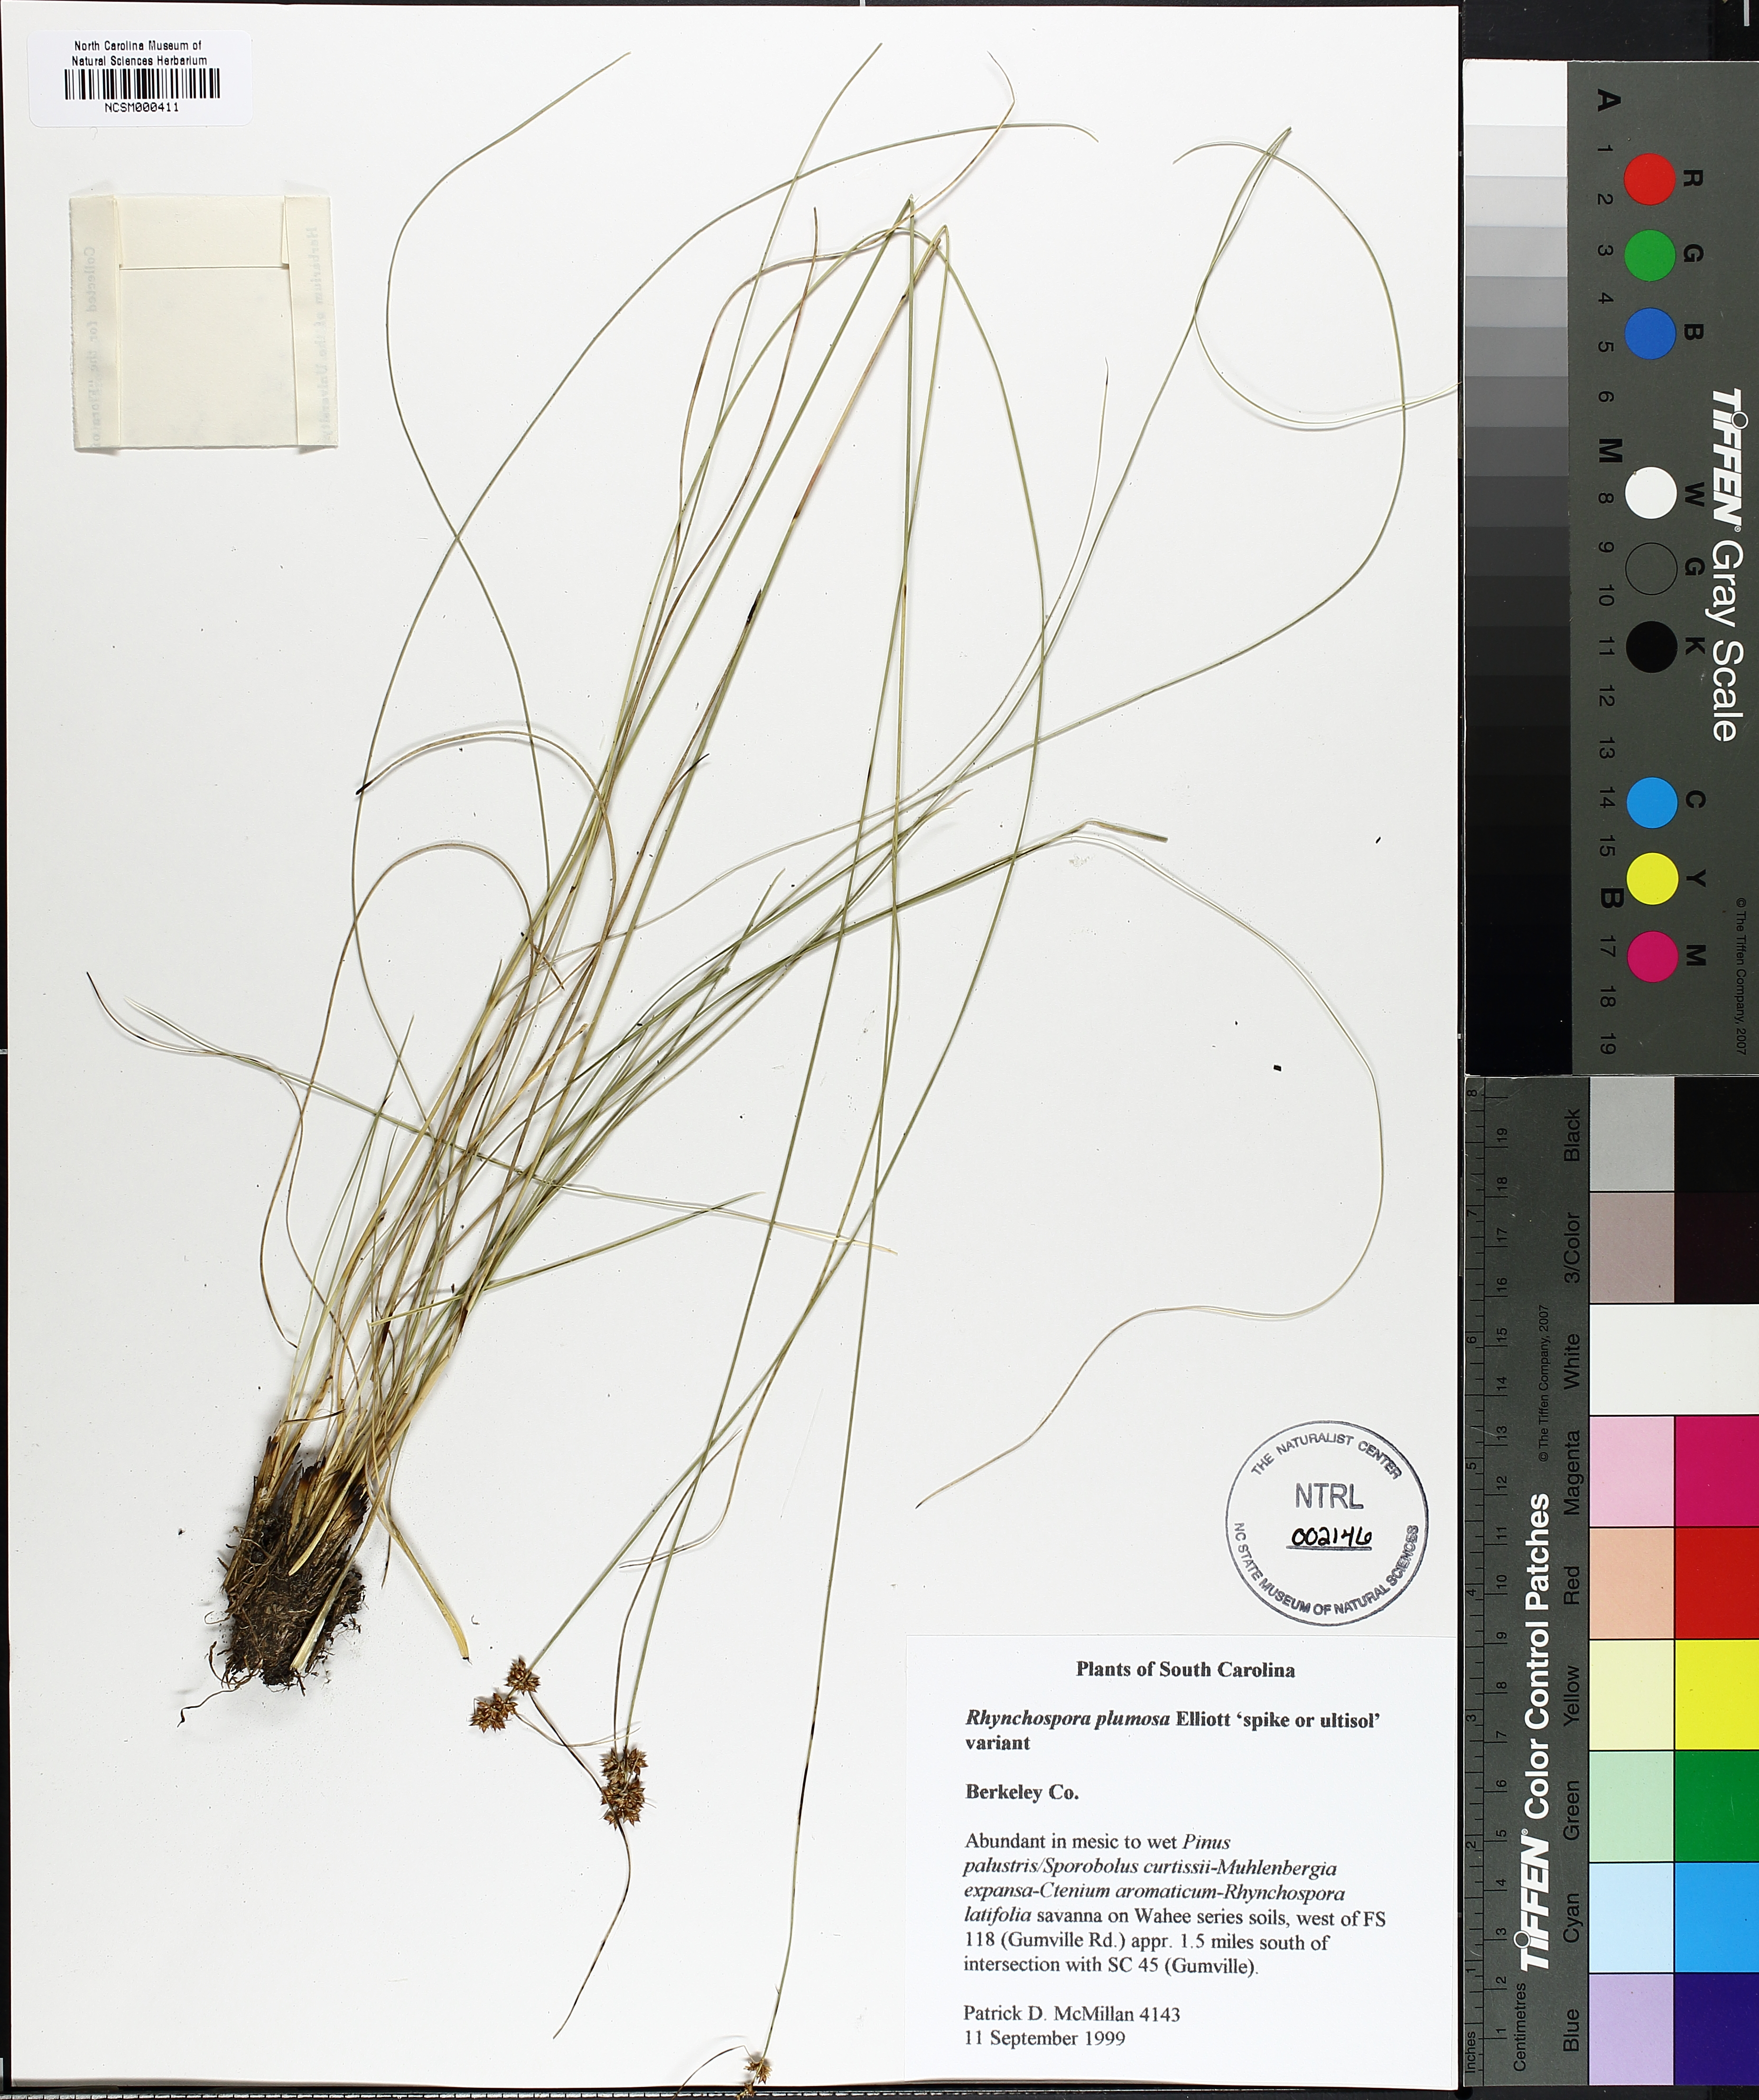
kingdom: Plantae
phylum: Tracheophyta
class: Liliopsida
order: Poales
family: Cyperaceae
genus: Rhynchospora
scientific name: Rhynchospora plumosa
